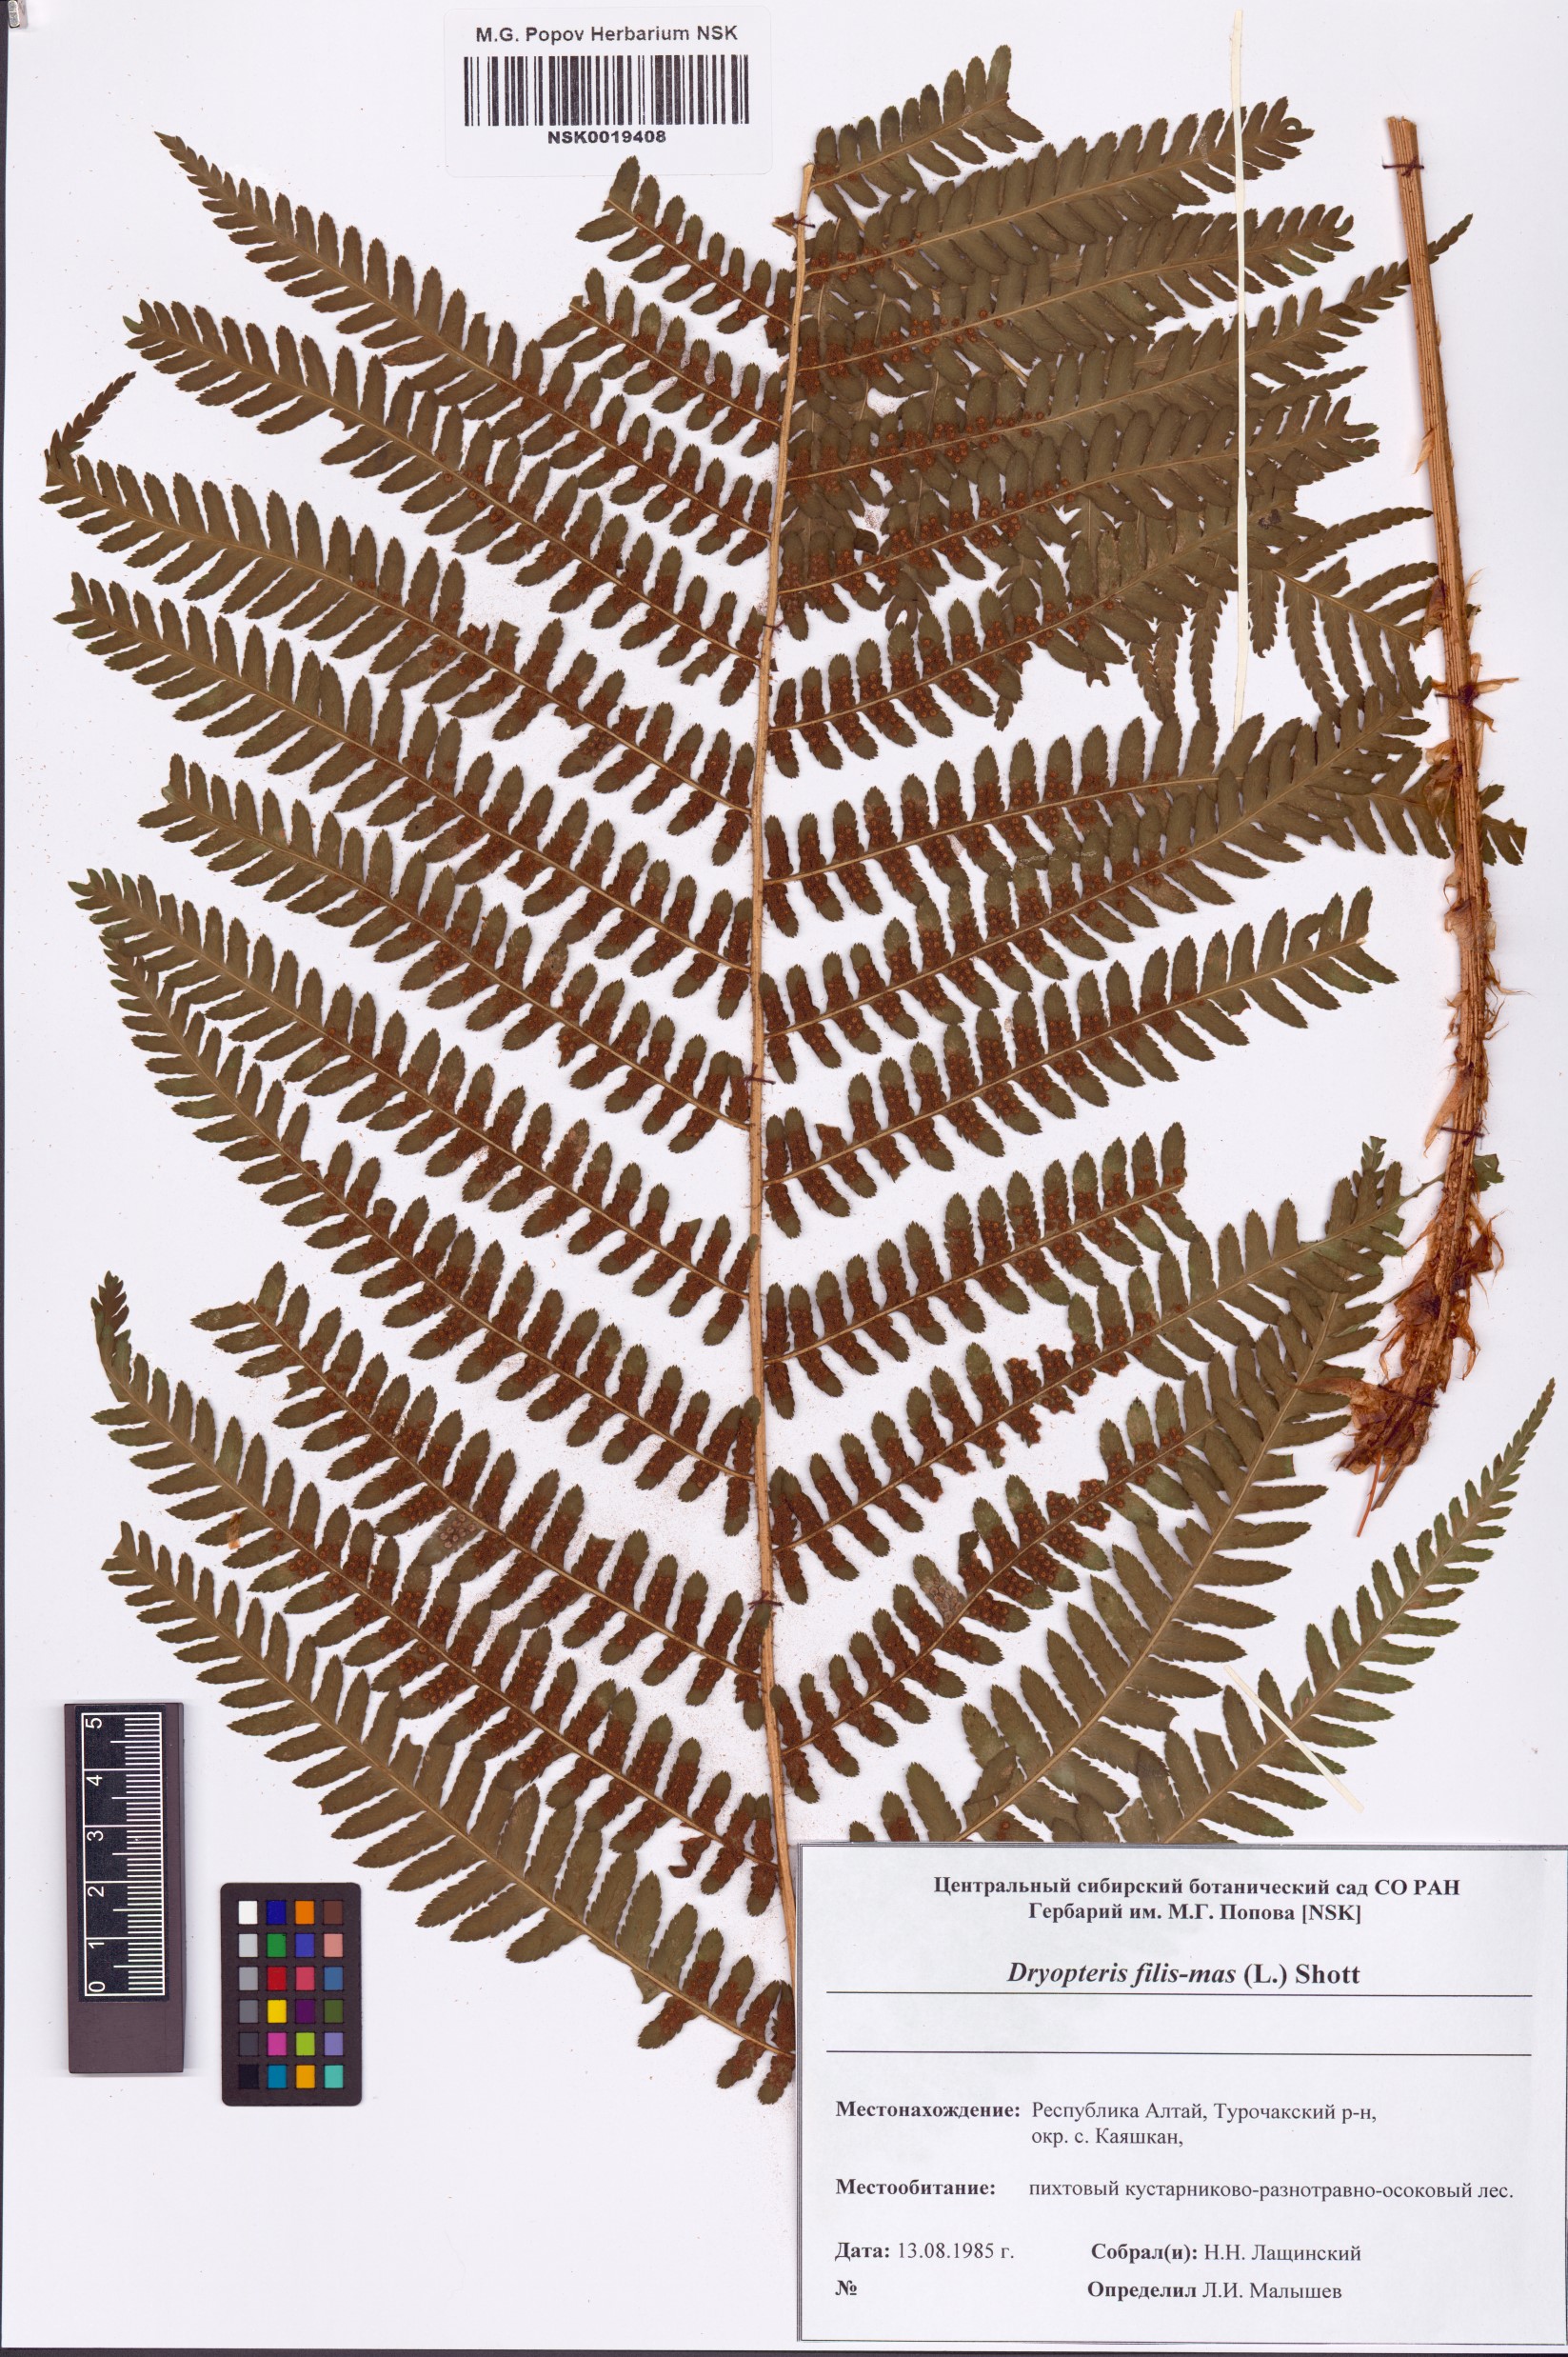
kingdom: Plantae
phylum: Tracheophyta
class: Polypodiopsida
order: Polypodiales
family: Dryopteridaceae
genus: Dryopteris
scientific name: Dryopteris filix-mas
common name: Male fern
